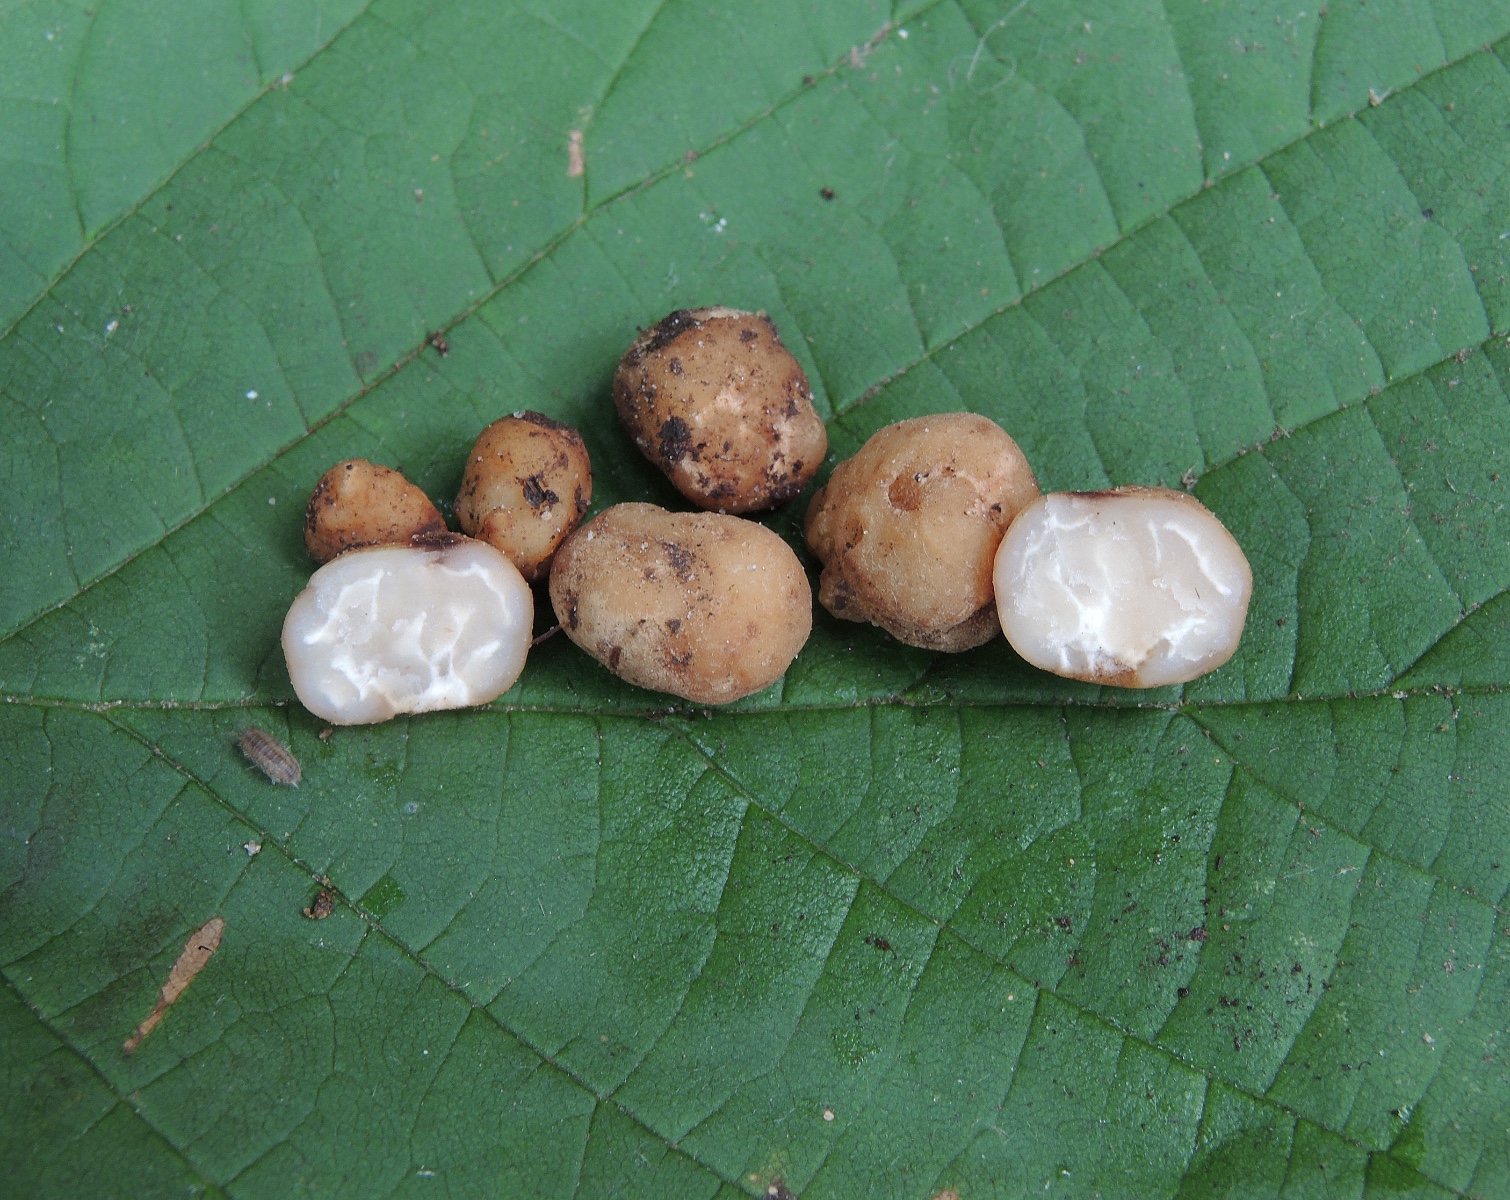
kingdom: Fungi
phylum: Ascomycota
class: Pezizomycetes
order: Pezizales
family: Tuberaceae
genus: Tuber
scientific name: Tuber borchii
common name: Borchs trøffel
